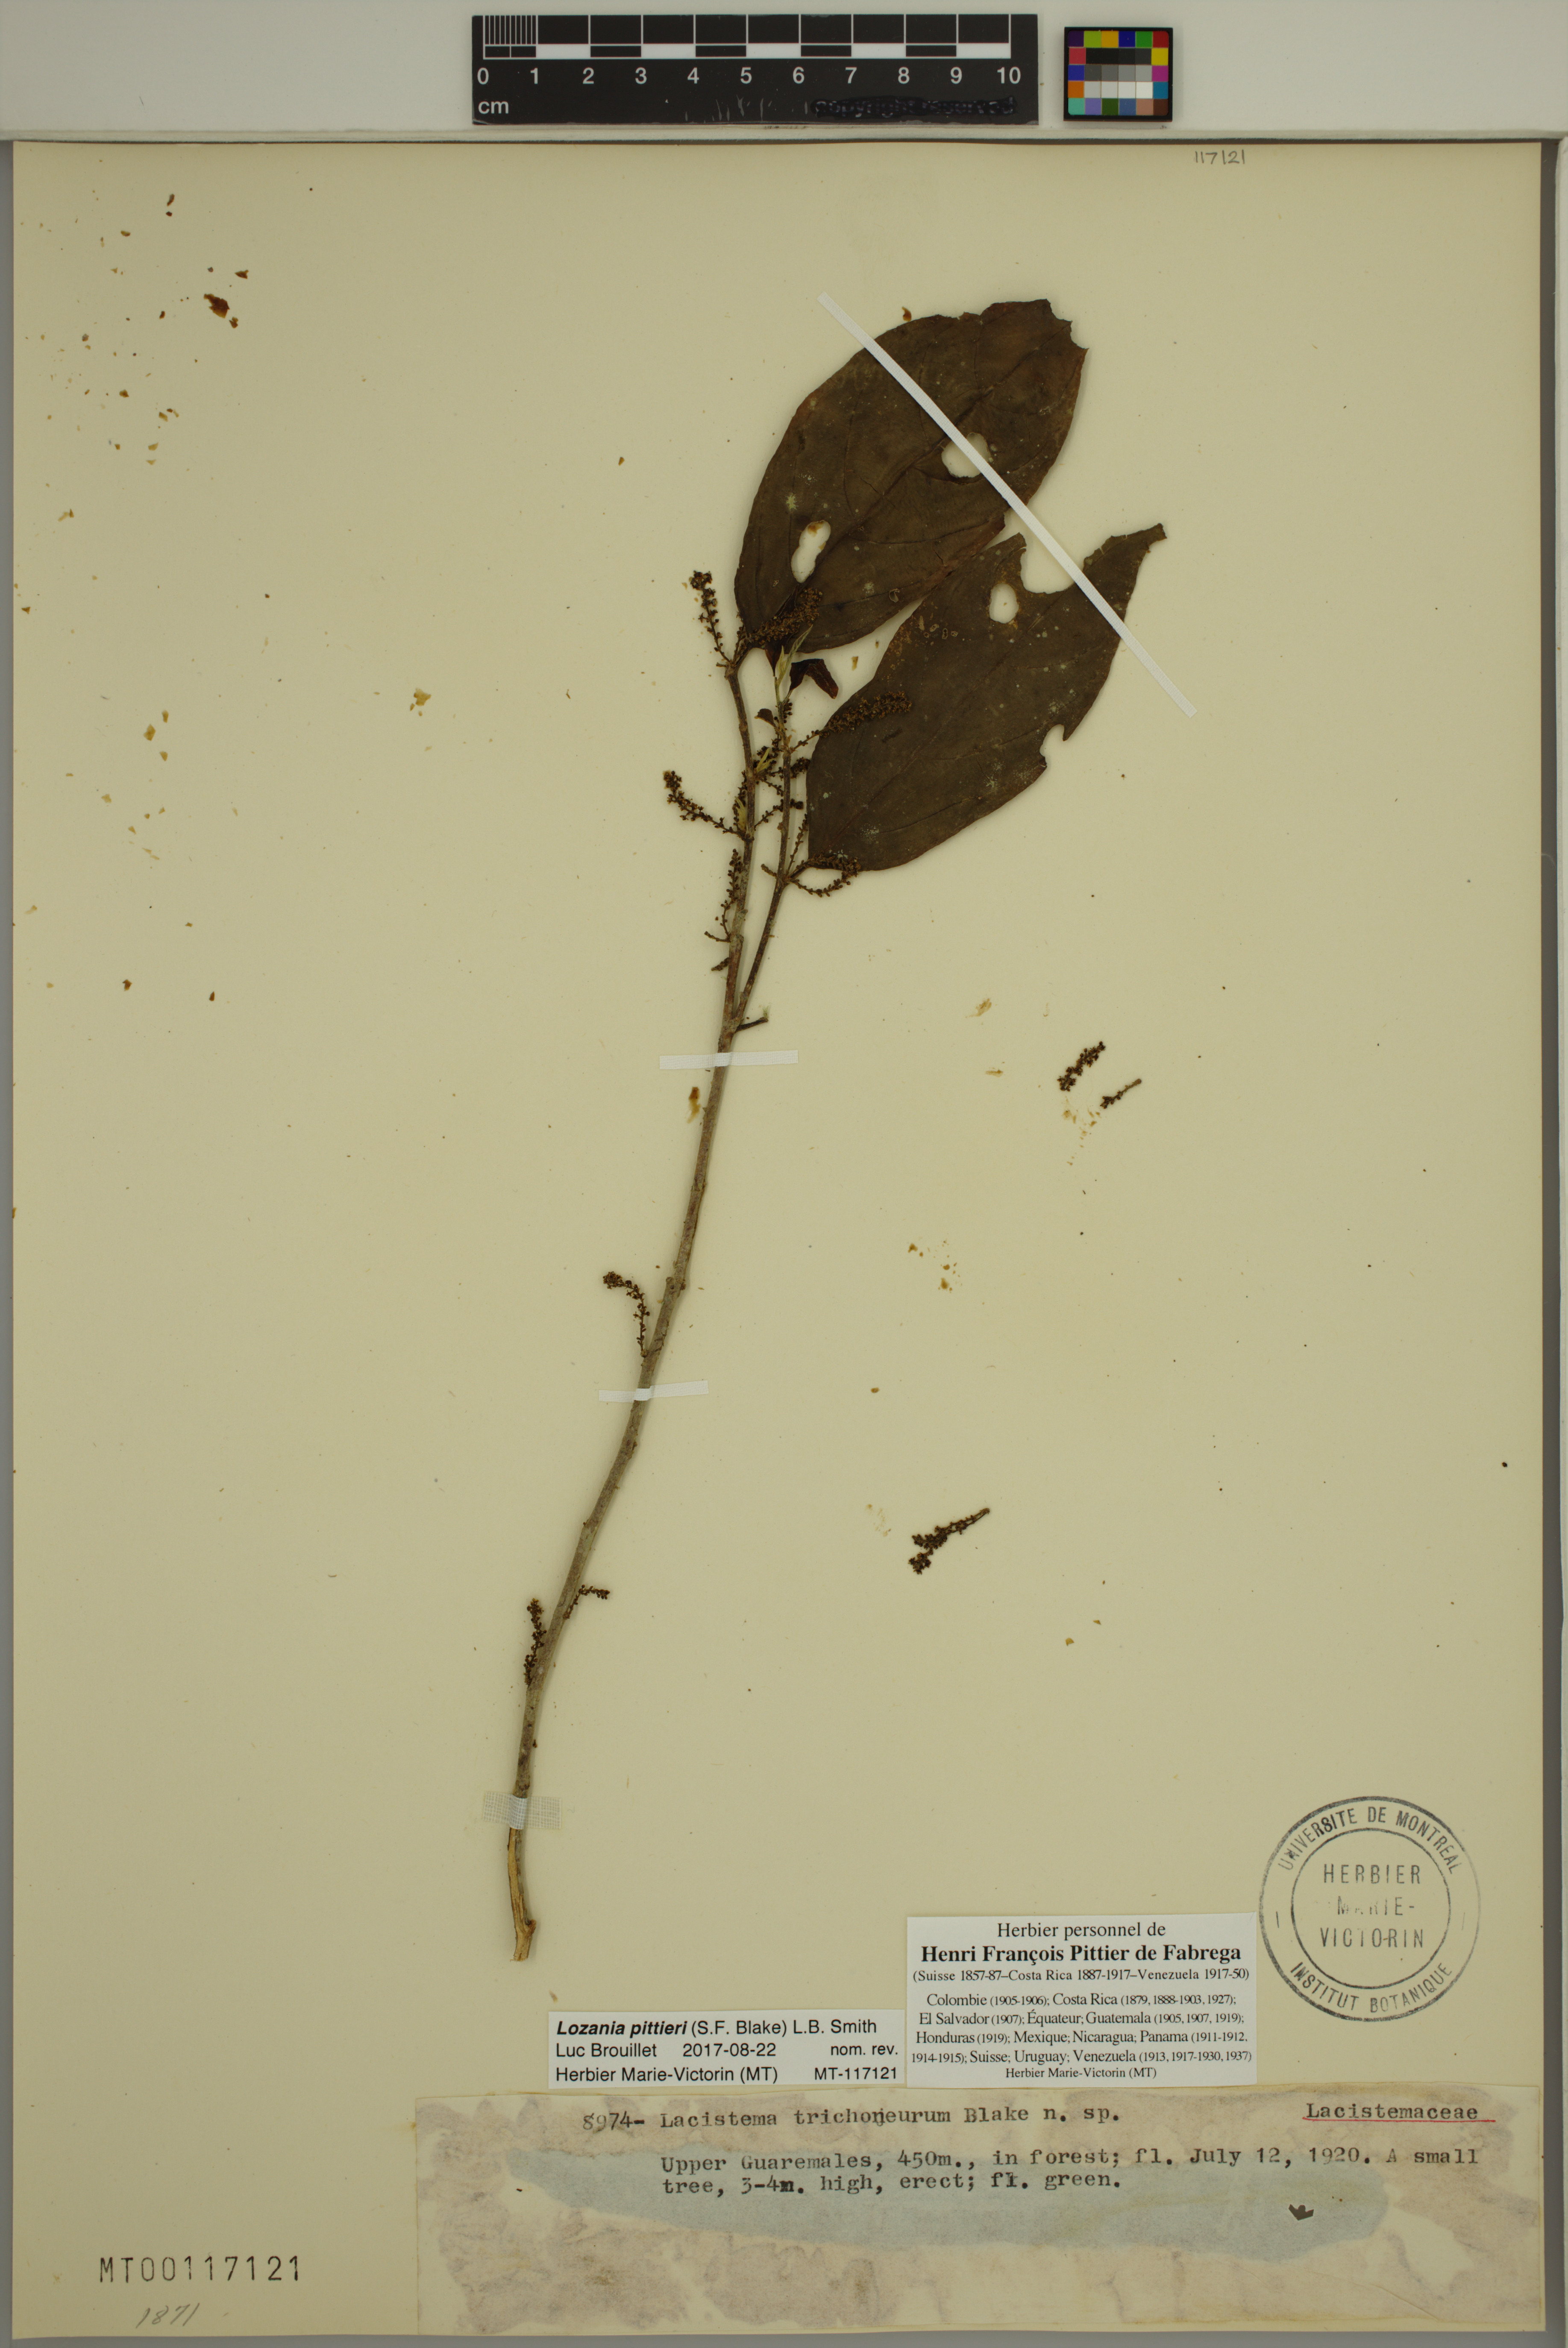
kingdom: Plantae
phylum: Tracheophyta
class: Magnoliopsida
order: Malpighiales
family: Lacistemataceae
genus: Lozania
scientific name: Lozania pittieri
